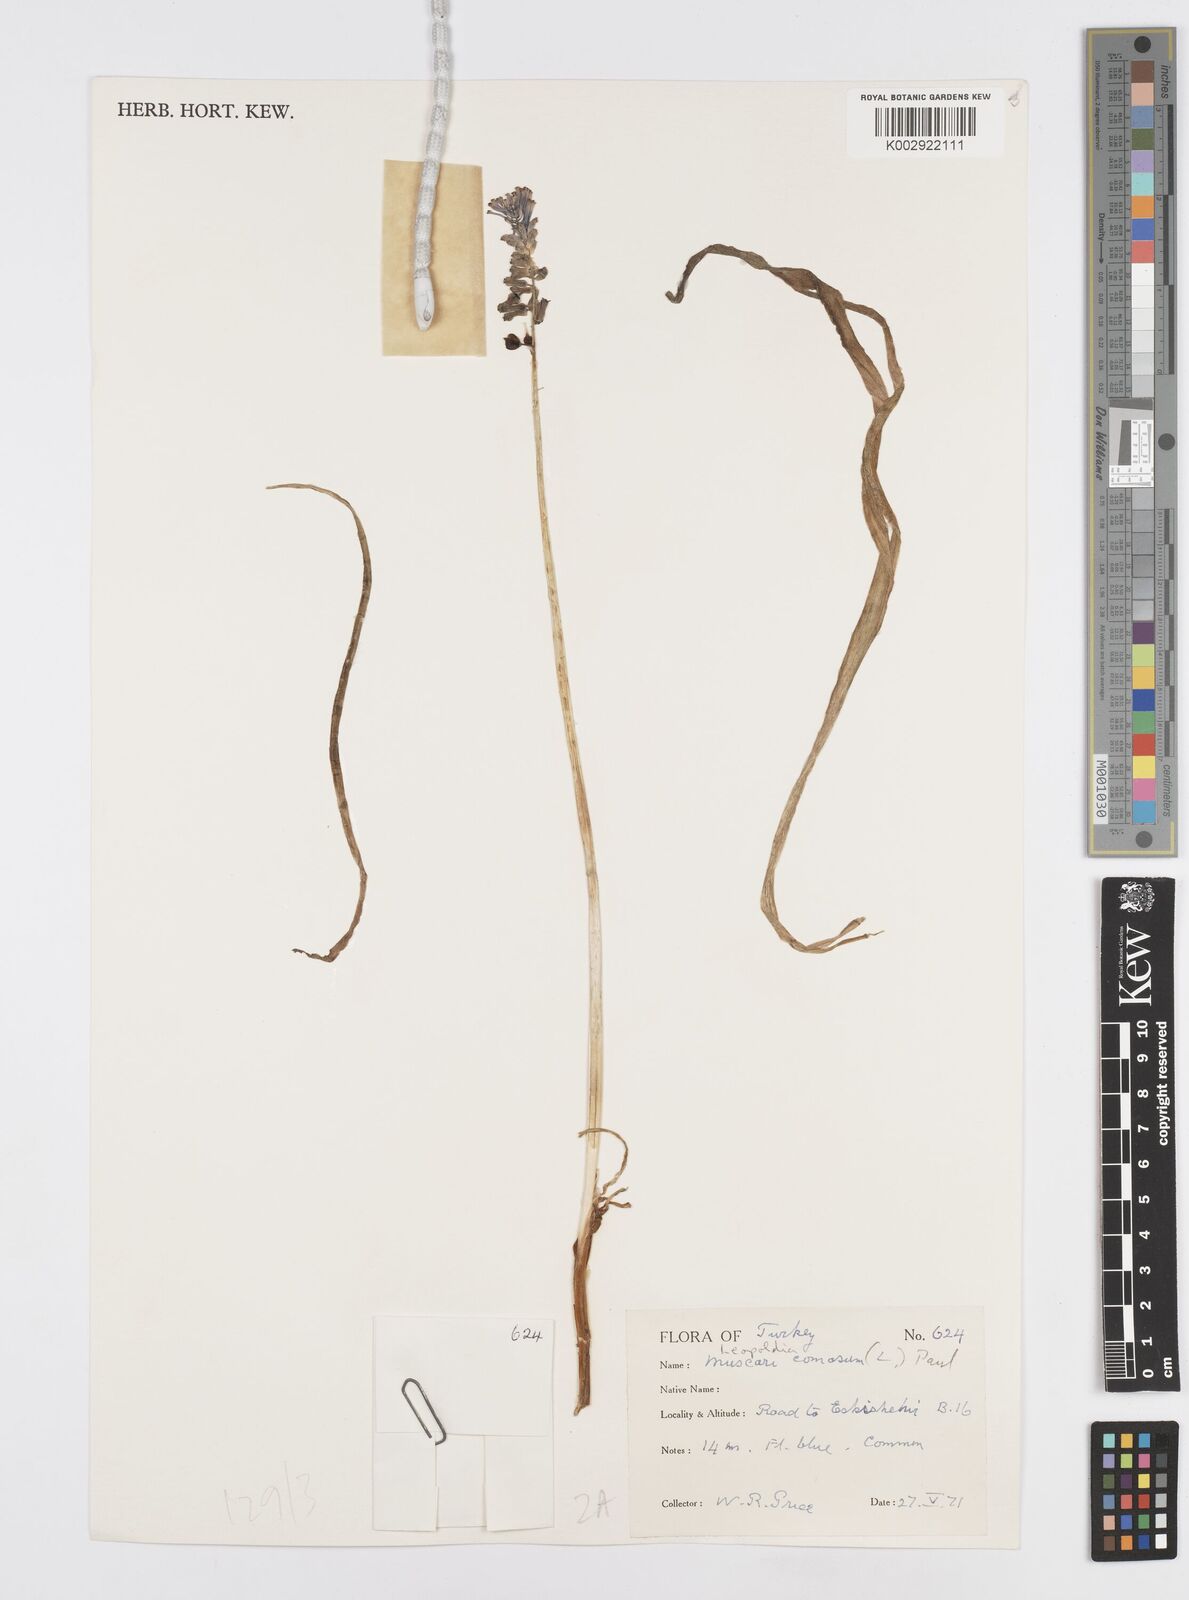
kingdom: Plantae
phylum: Tracheophyta
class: Liliopsida
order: Asparagales
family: Asparagaceae
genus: Muscari
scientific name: Muscari comosum
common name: Tassel hyacinth
